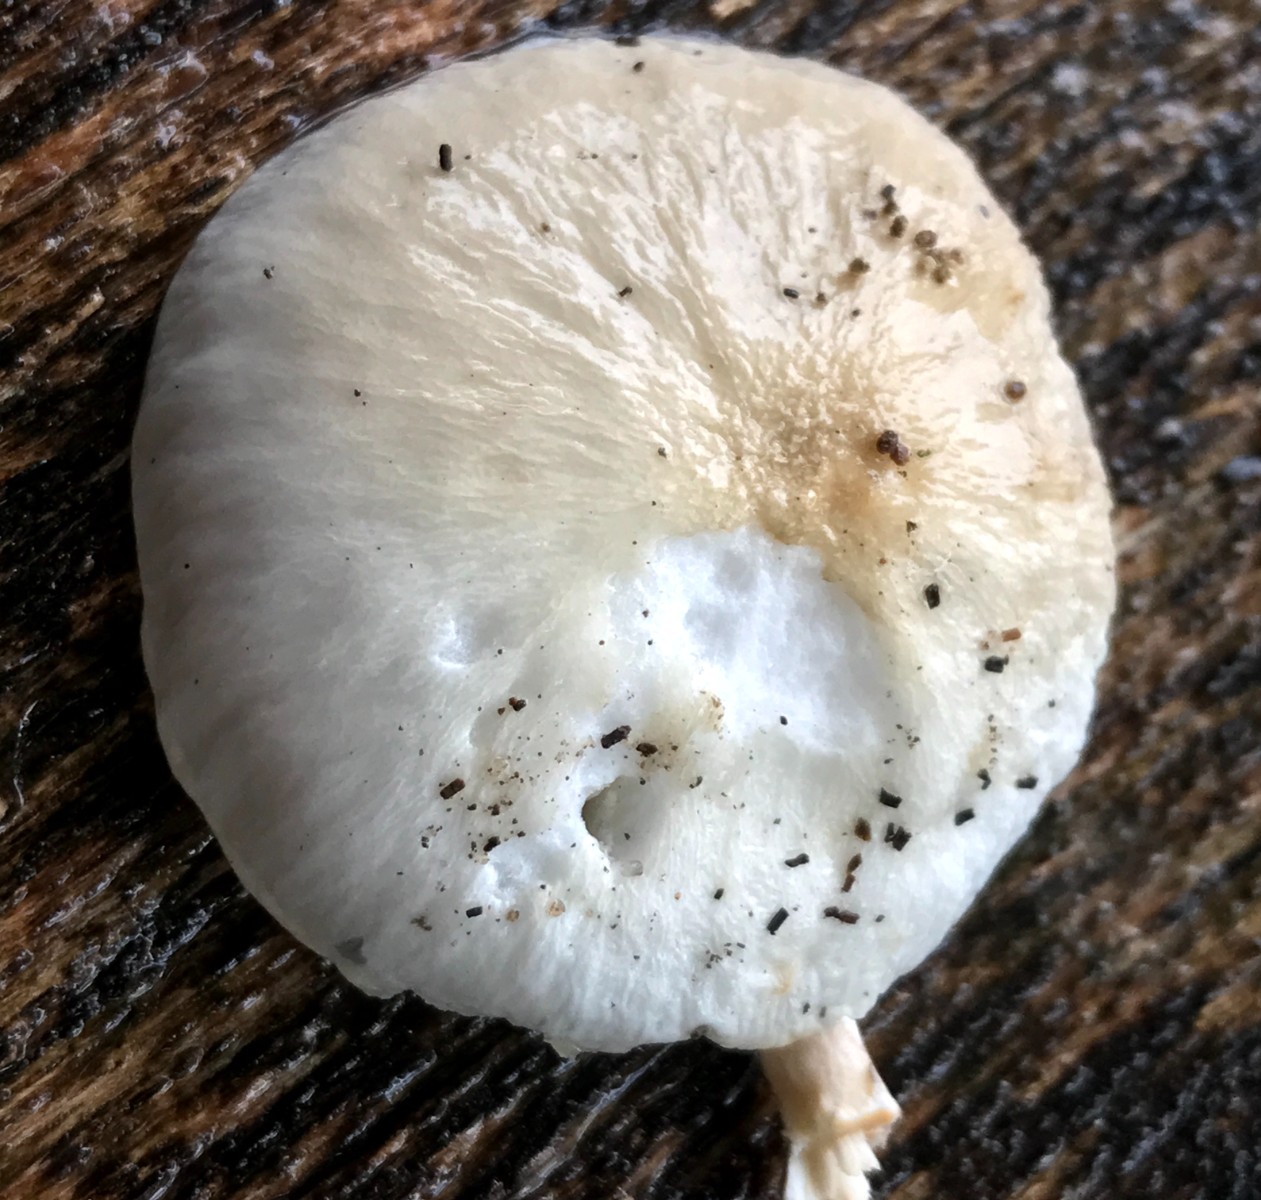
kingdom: Fungi
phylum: Basidiomycota
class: Agaricomycetes
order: Agaricales
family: Physalacriaceae
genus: Mucidula
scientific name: Mucidula mucida
